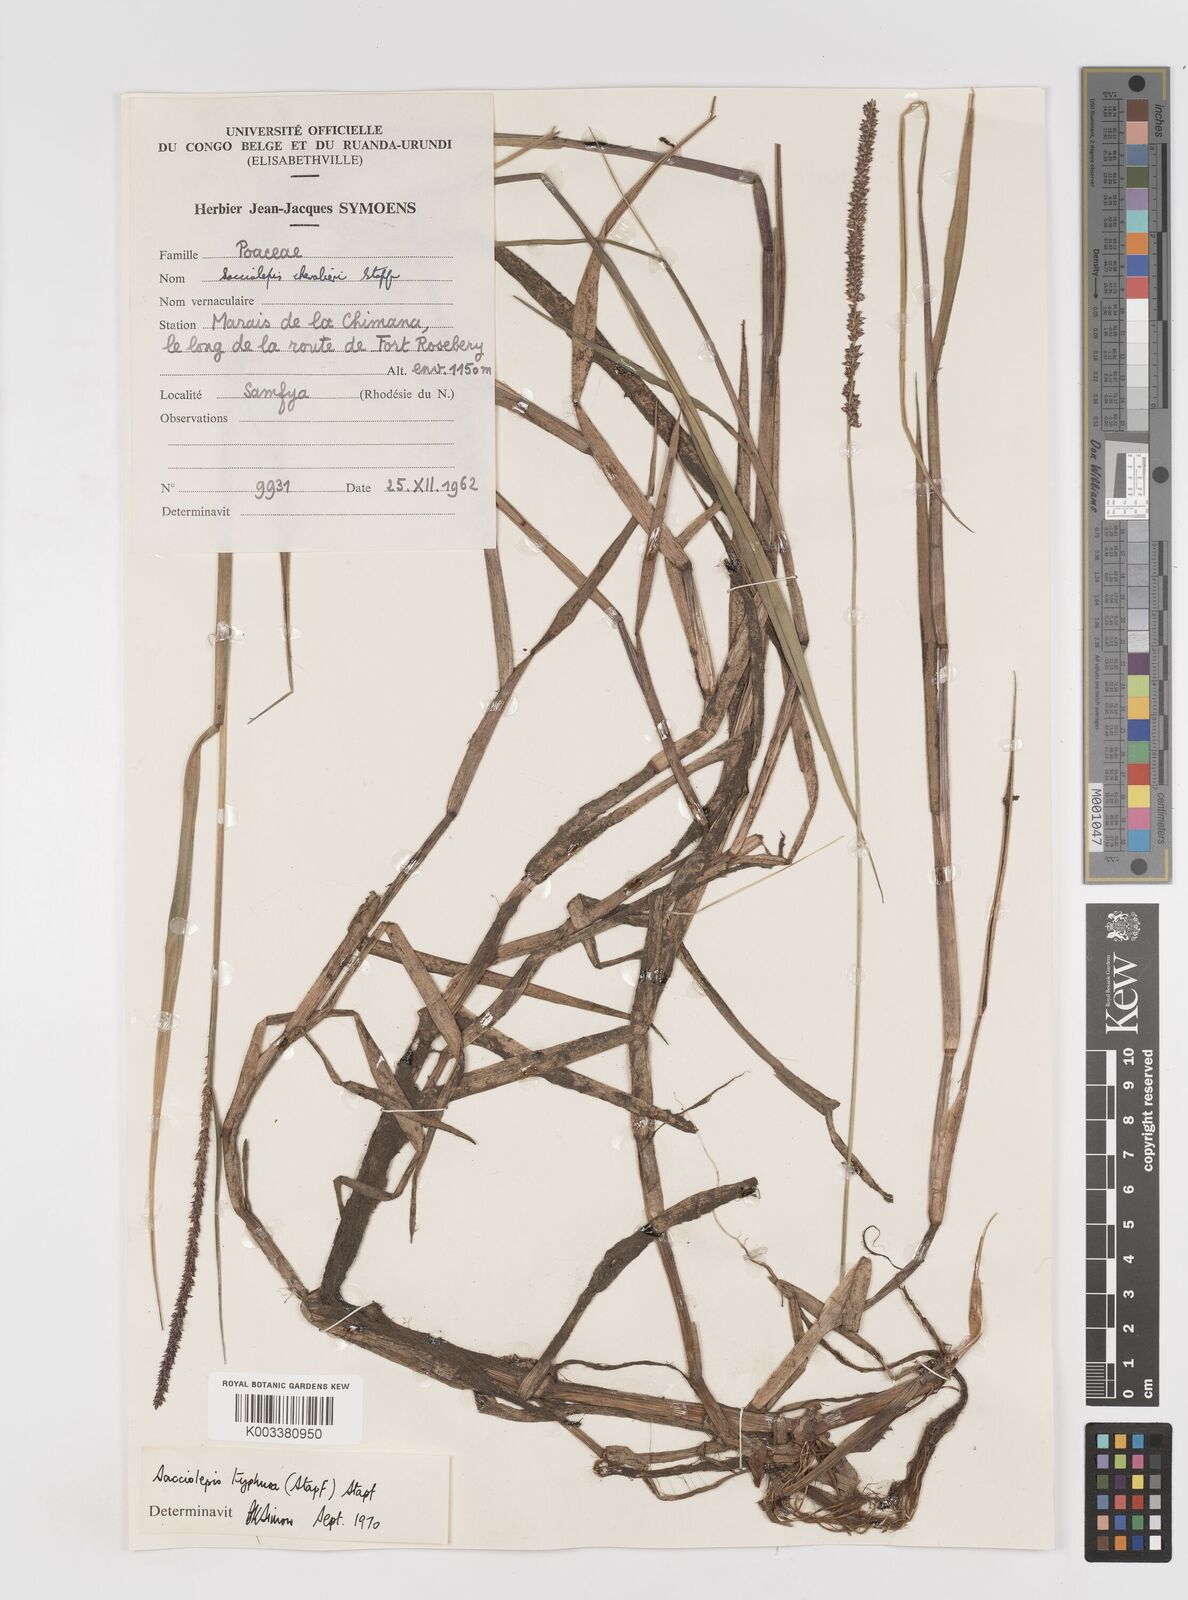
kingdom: Plantae
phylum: Tracheophyta
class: Liliopsida
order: Poales
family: Poaceae
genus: Sacciolepis
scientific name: Sacciolepis typhura
